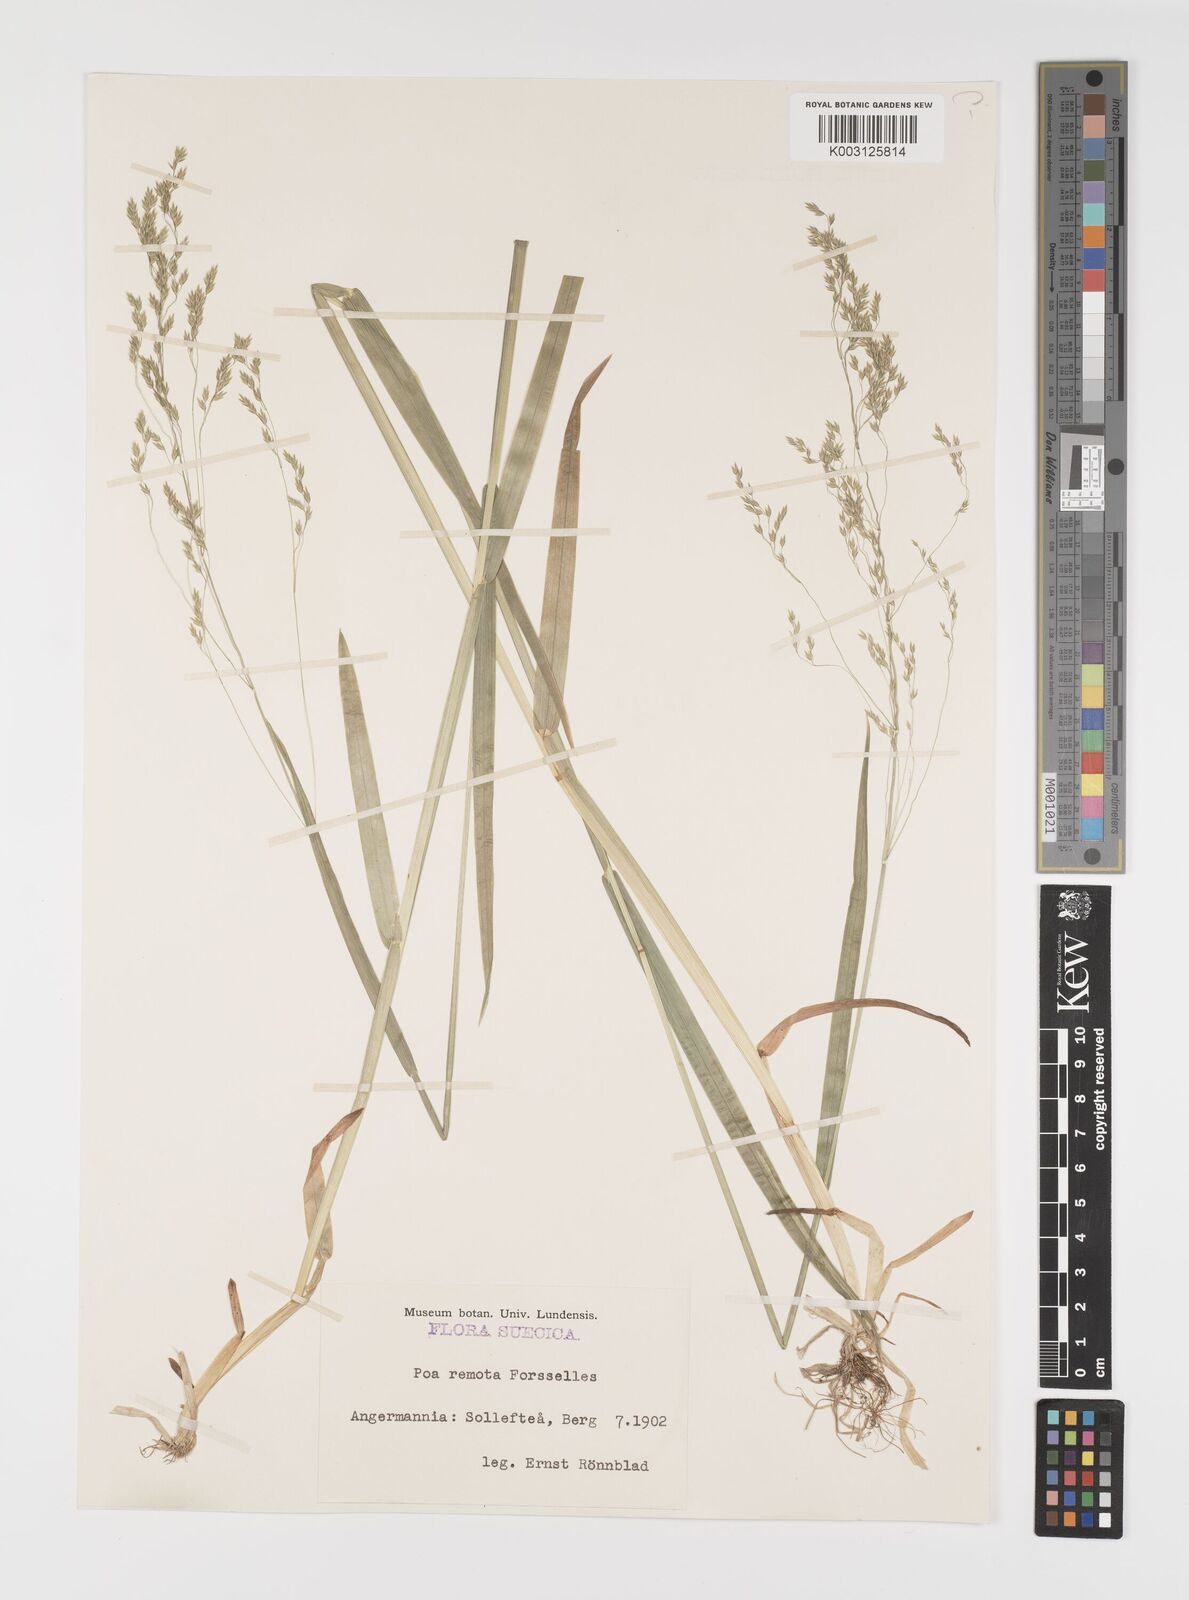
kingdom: Plantae
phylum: Tracheophyta
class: Liliopsida
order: Poales
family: Poaceae
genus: Poa
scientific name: Poa remota
